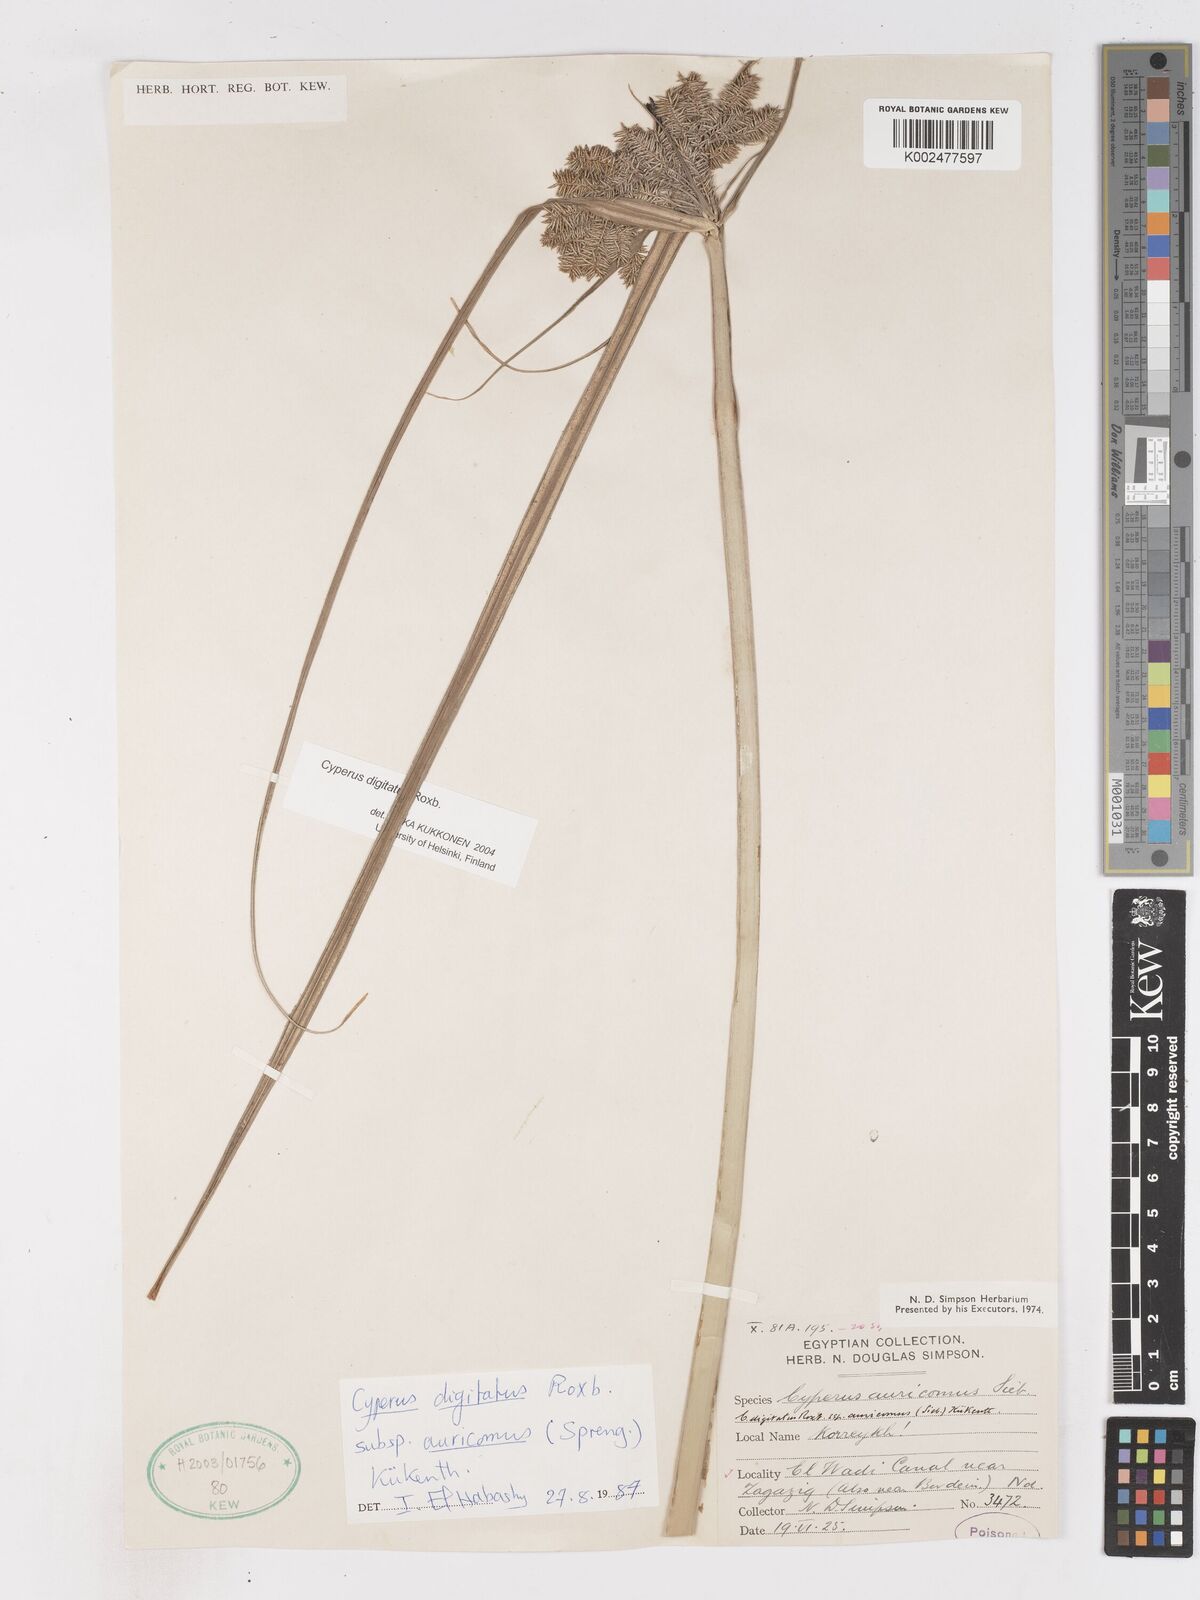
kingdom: Plantae
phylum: Tracheophyta
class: Liliopsida
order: Poales
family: Cyperaceae
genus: Cyperus
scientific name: Cyperus digitatus
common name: Finger flatsedge
